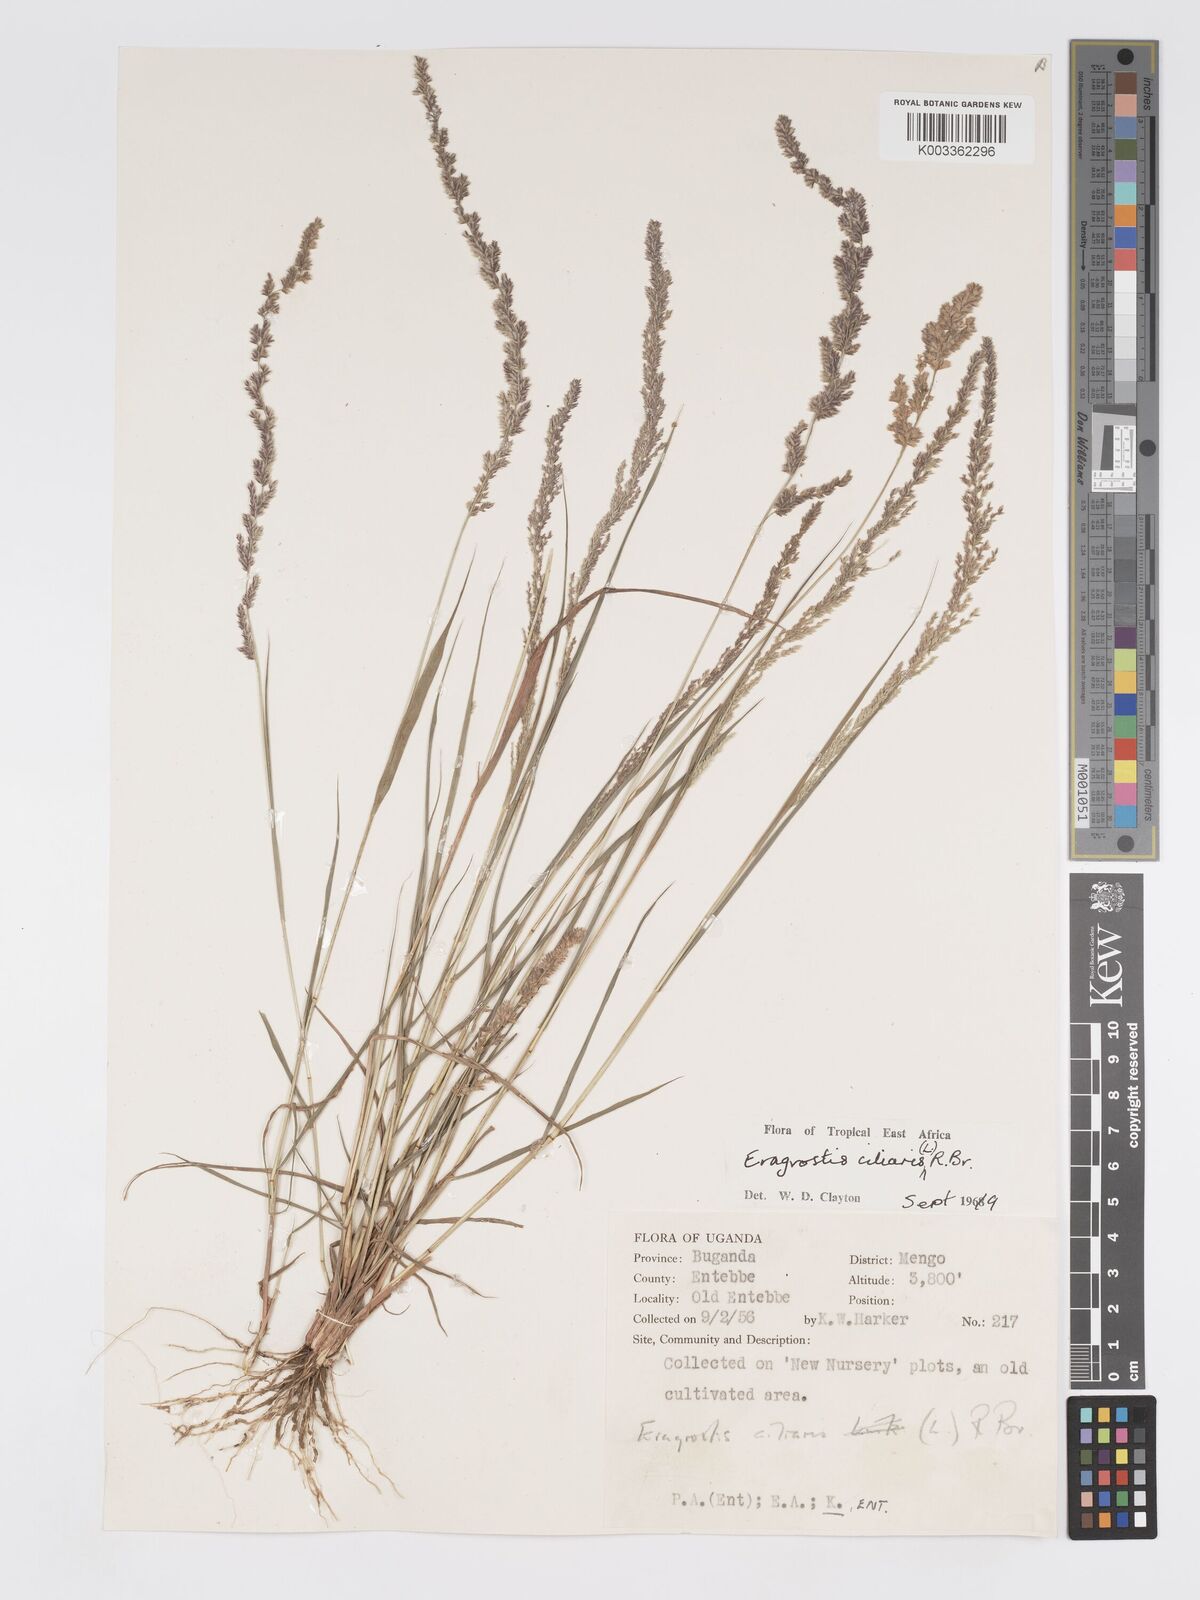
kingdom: Plantae
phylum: Tracheophyta
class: Liliopsida
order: Poales
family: Poaceae
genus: Eragrostis
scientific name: Eragrostis ciliaris
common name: Gophertail lovegrass
